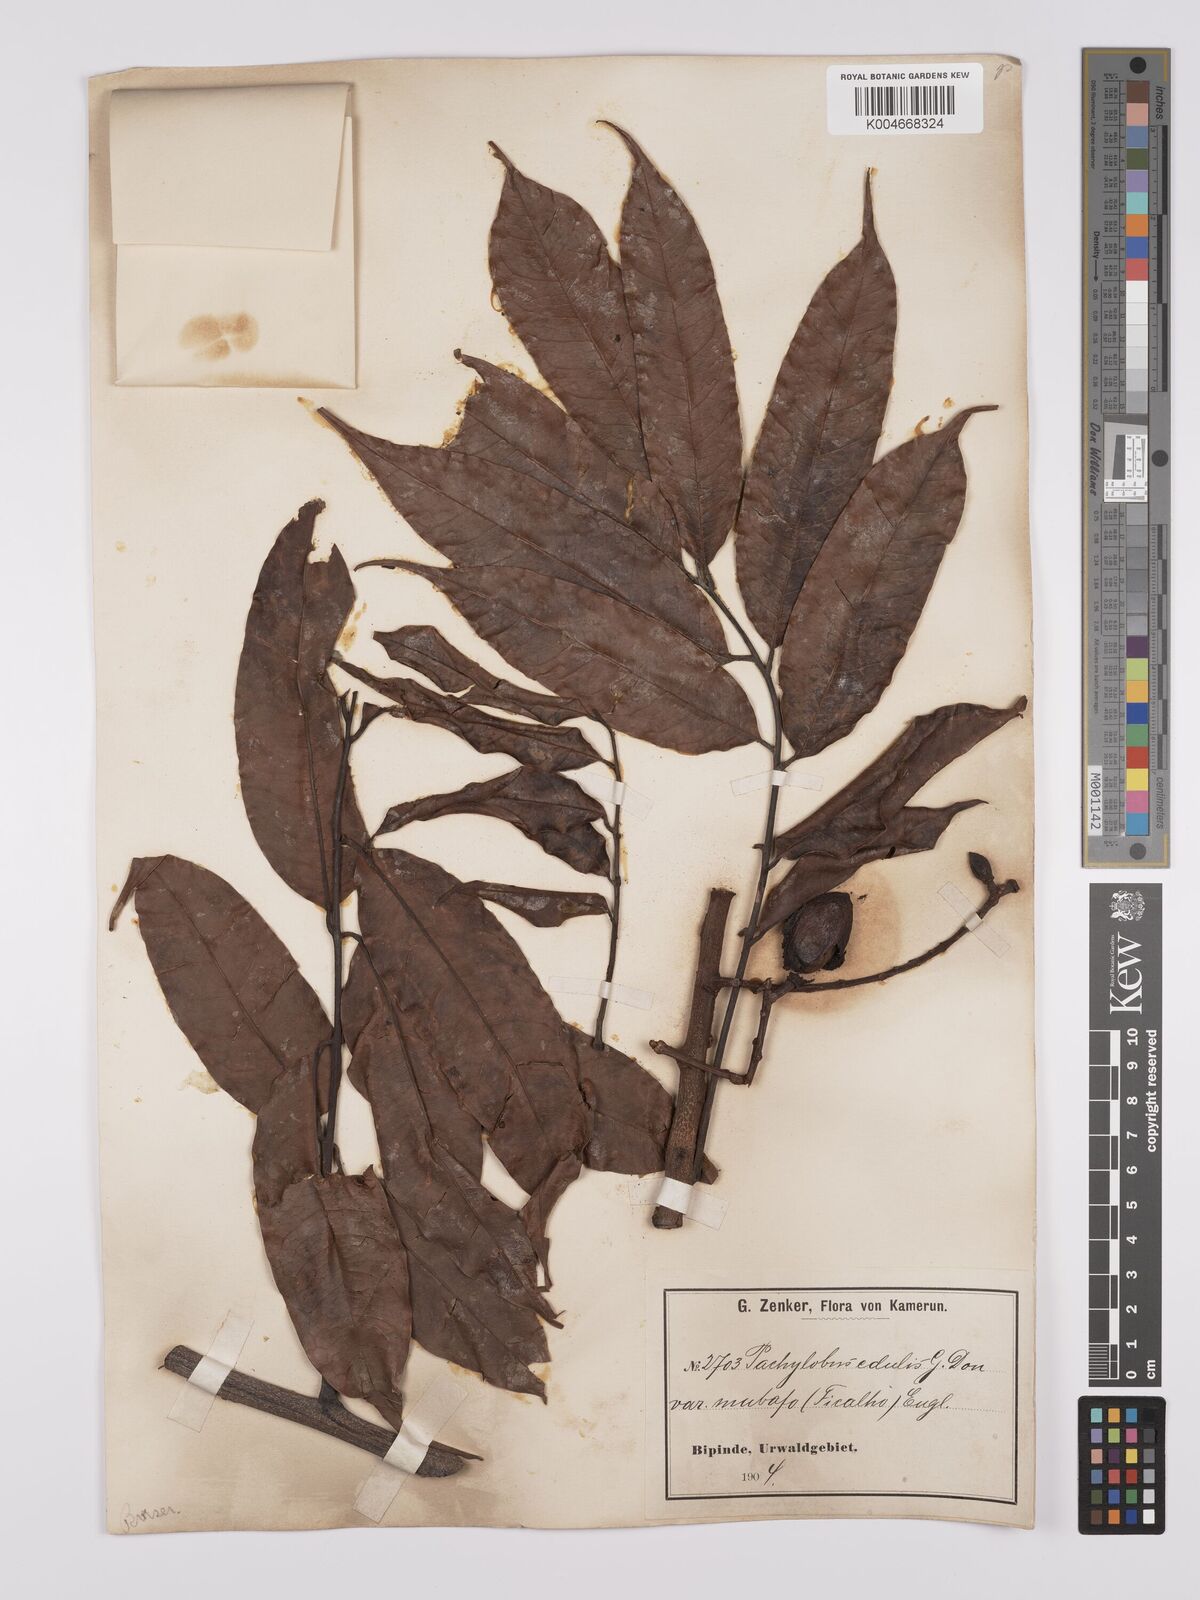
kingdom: Plantae
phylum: Tracheophyta
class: Magnoliopsida
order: Sapindales
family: Burseraceae
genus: Pachylobus
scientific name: Pachylobus edulis
